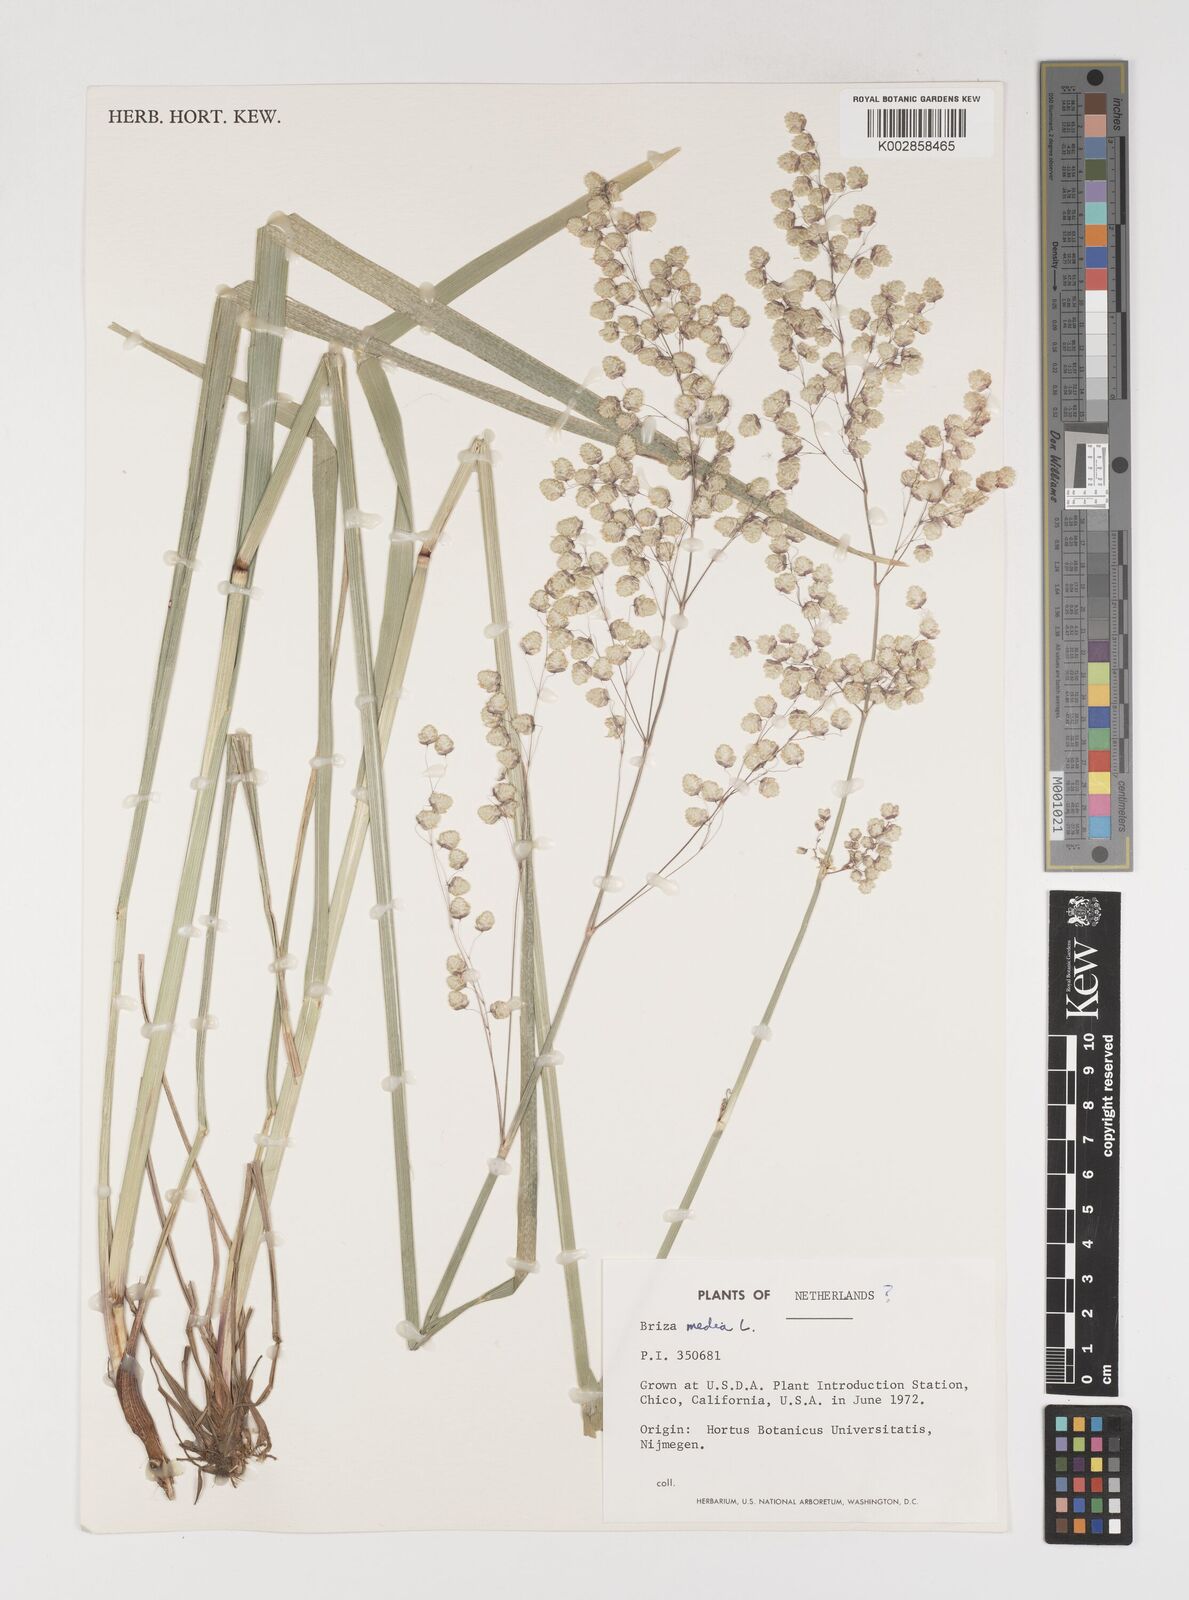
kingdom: Plantae
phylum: Tracheophyta
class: Liliopsida
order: Poales
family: Poaceae
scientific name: Poaceae
